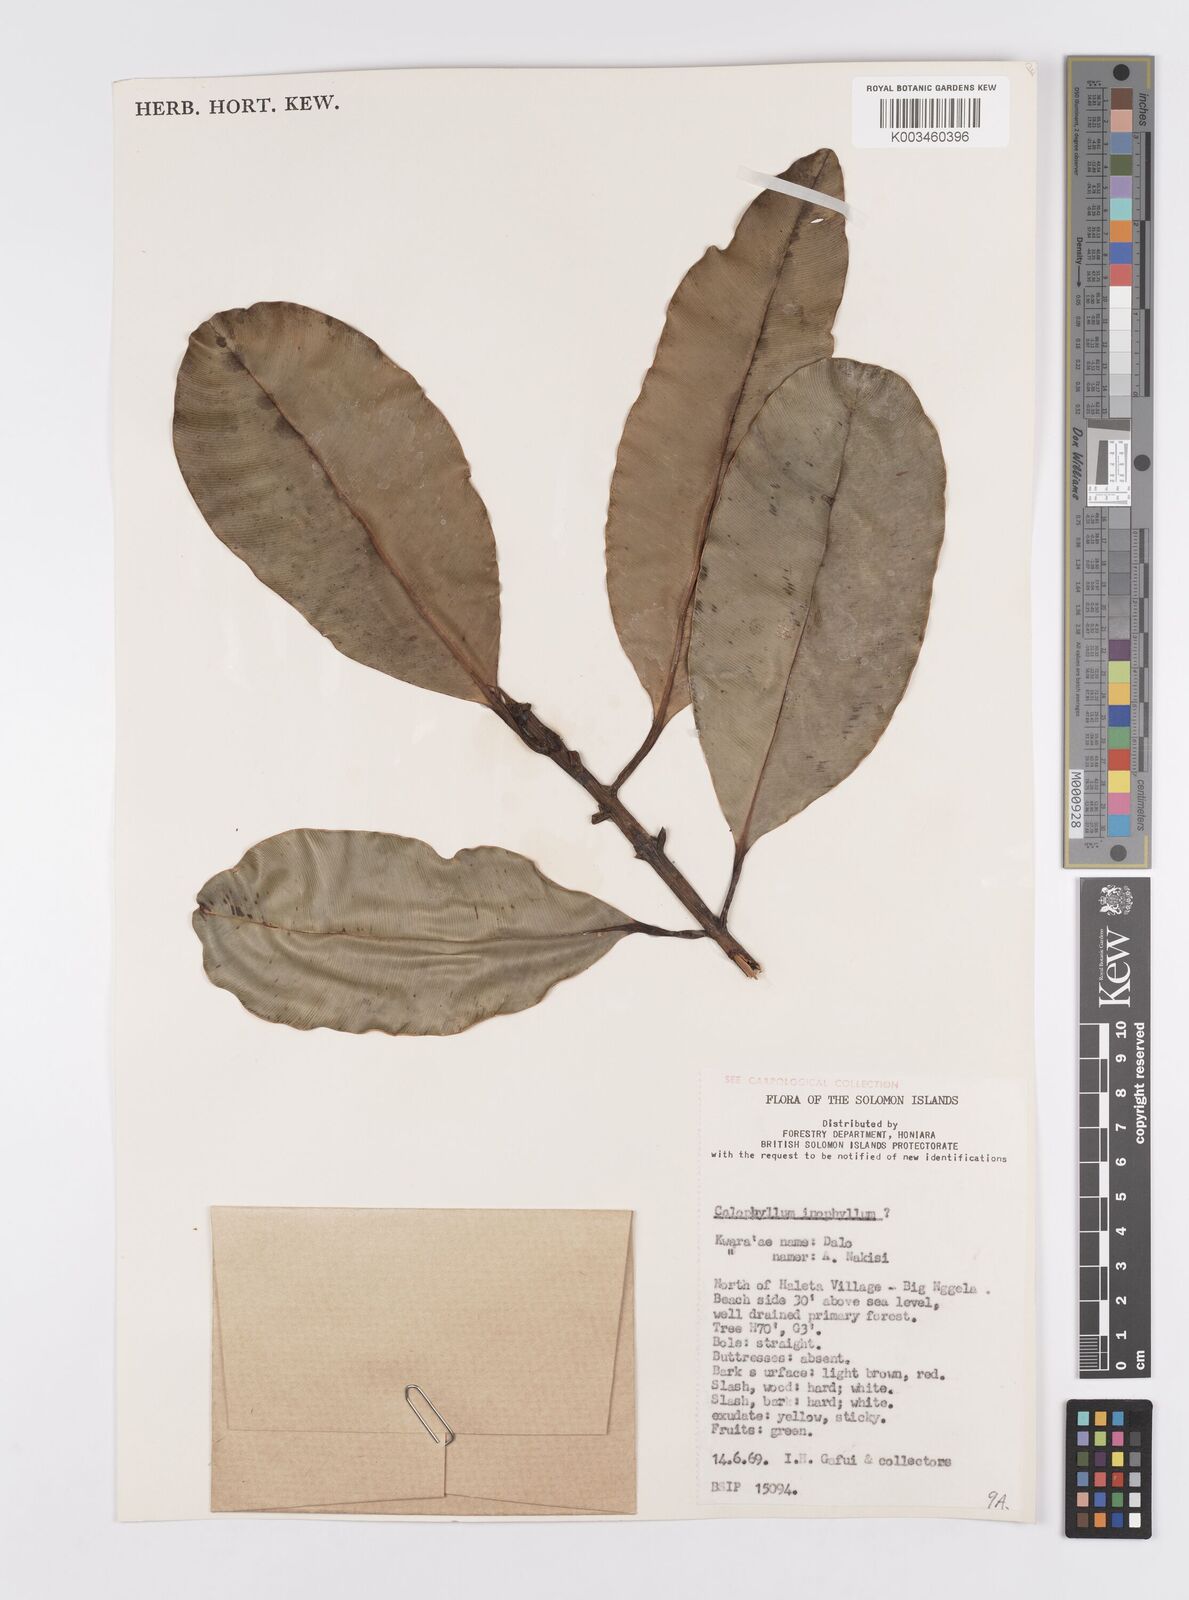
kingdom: Plantae
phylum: Tracheophyta
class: Magnoliopsida
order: Malpighiales
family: Calophyllaceae
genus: Calophyllum
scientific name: Calophyllum inophyllum
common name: Alexandrian laurel
